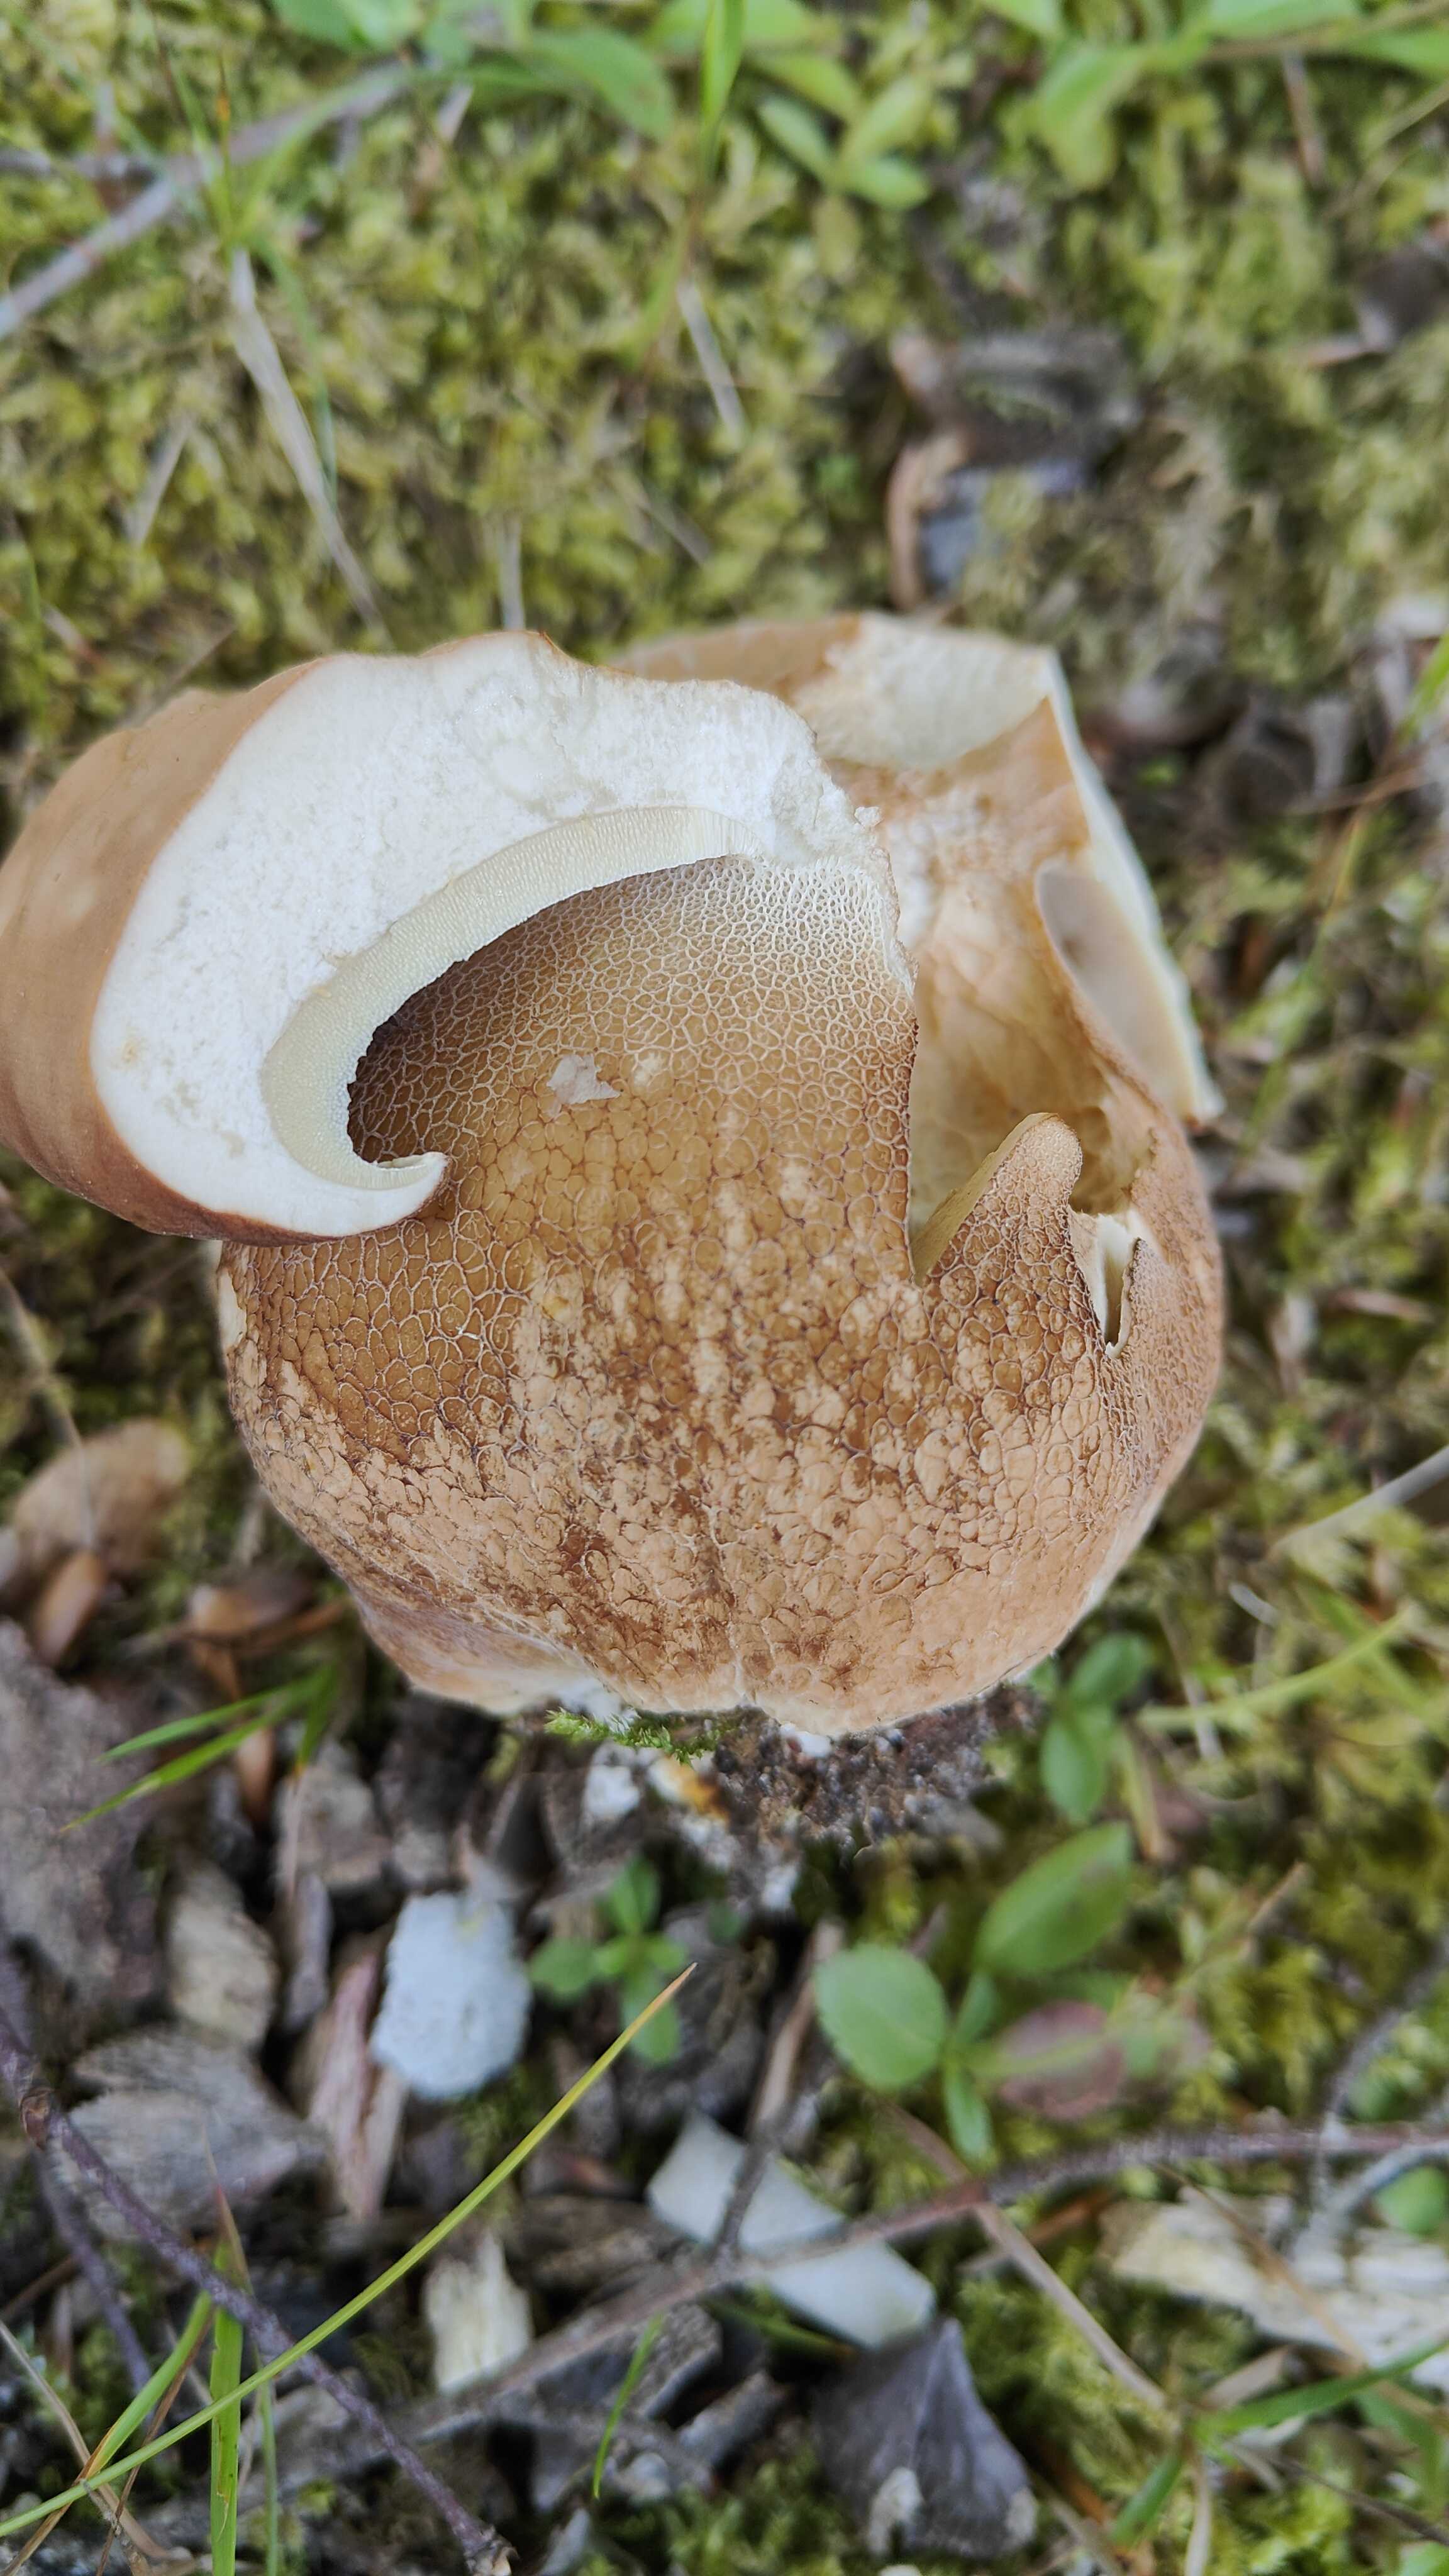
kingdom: Fungi
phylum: Basidiomycota
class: Agaricomycetes
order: Boletales
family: Boletaceae
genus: Boletus
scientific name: Boletus reticulatus
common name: sommer-rørhat
